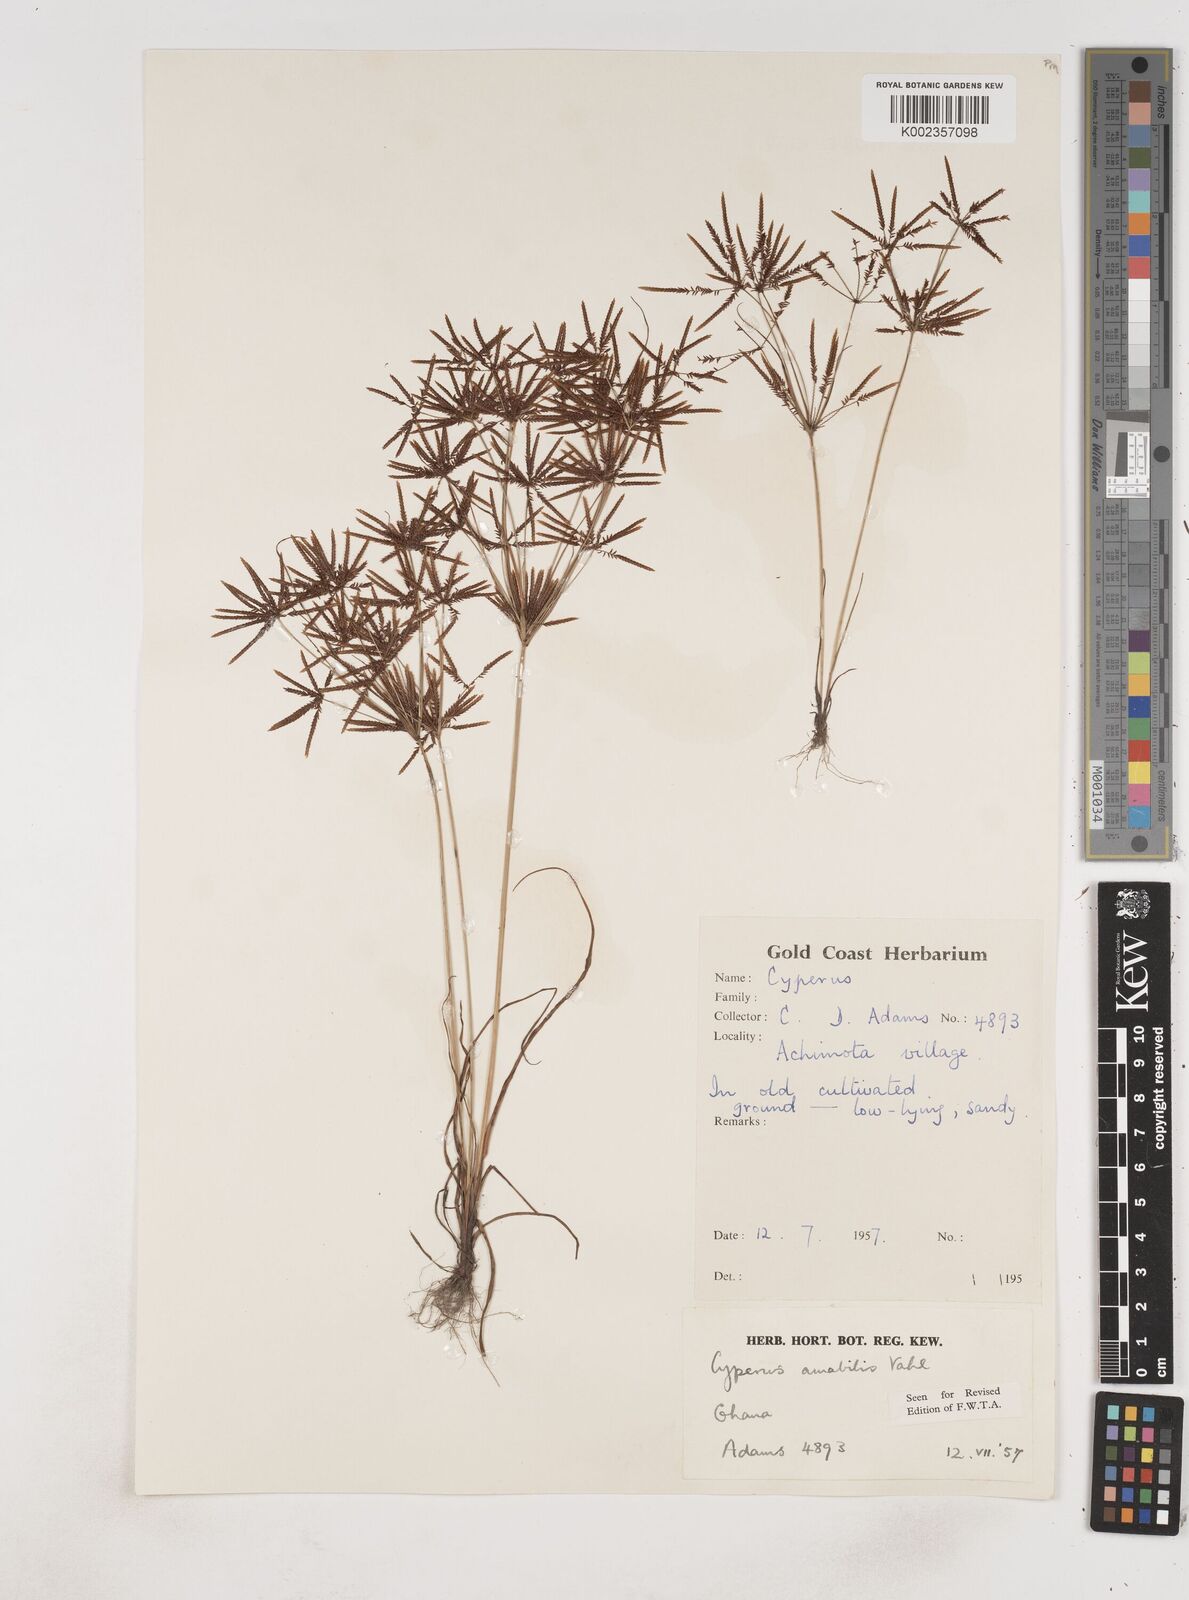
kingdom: Plantae
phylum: Tracheophyta
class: Liliopsida
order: Poales
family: Cyperaceae
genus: Cyperus
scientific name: Cyperus amabilis
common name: Foothill flat sedge
